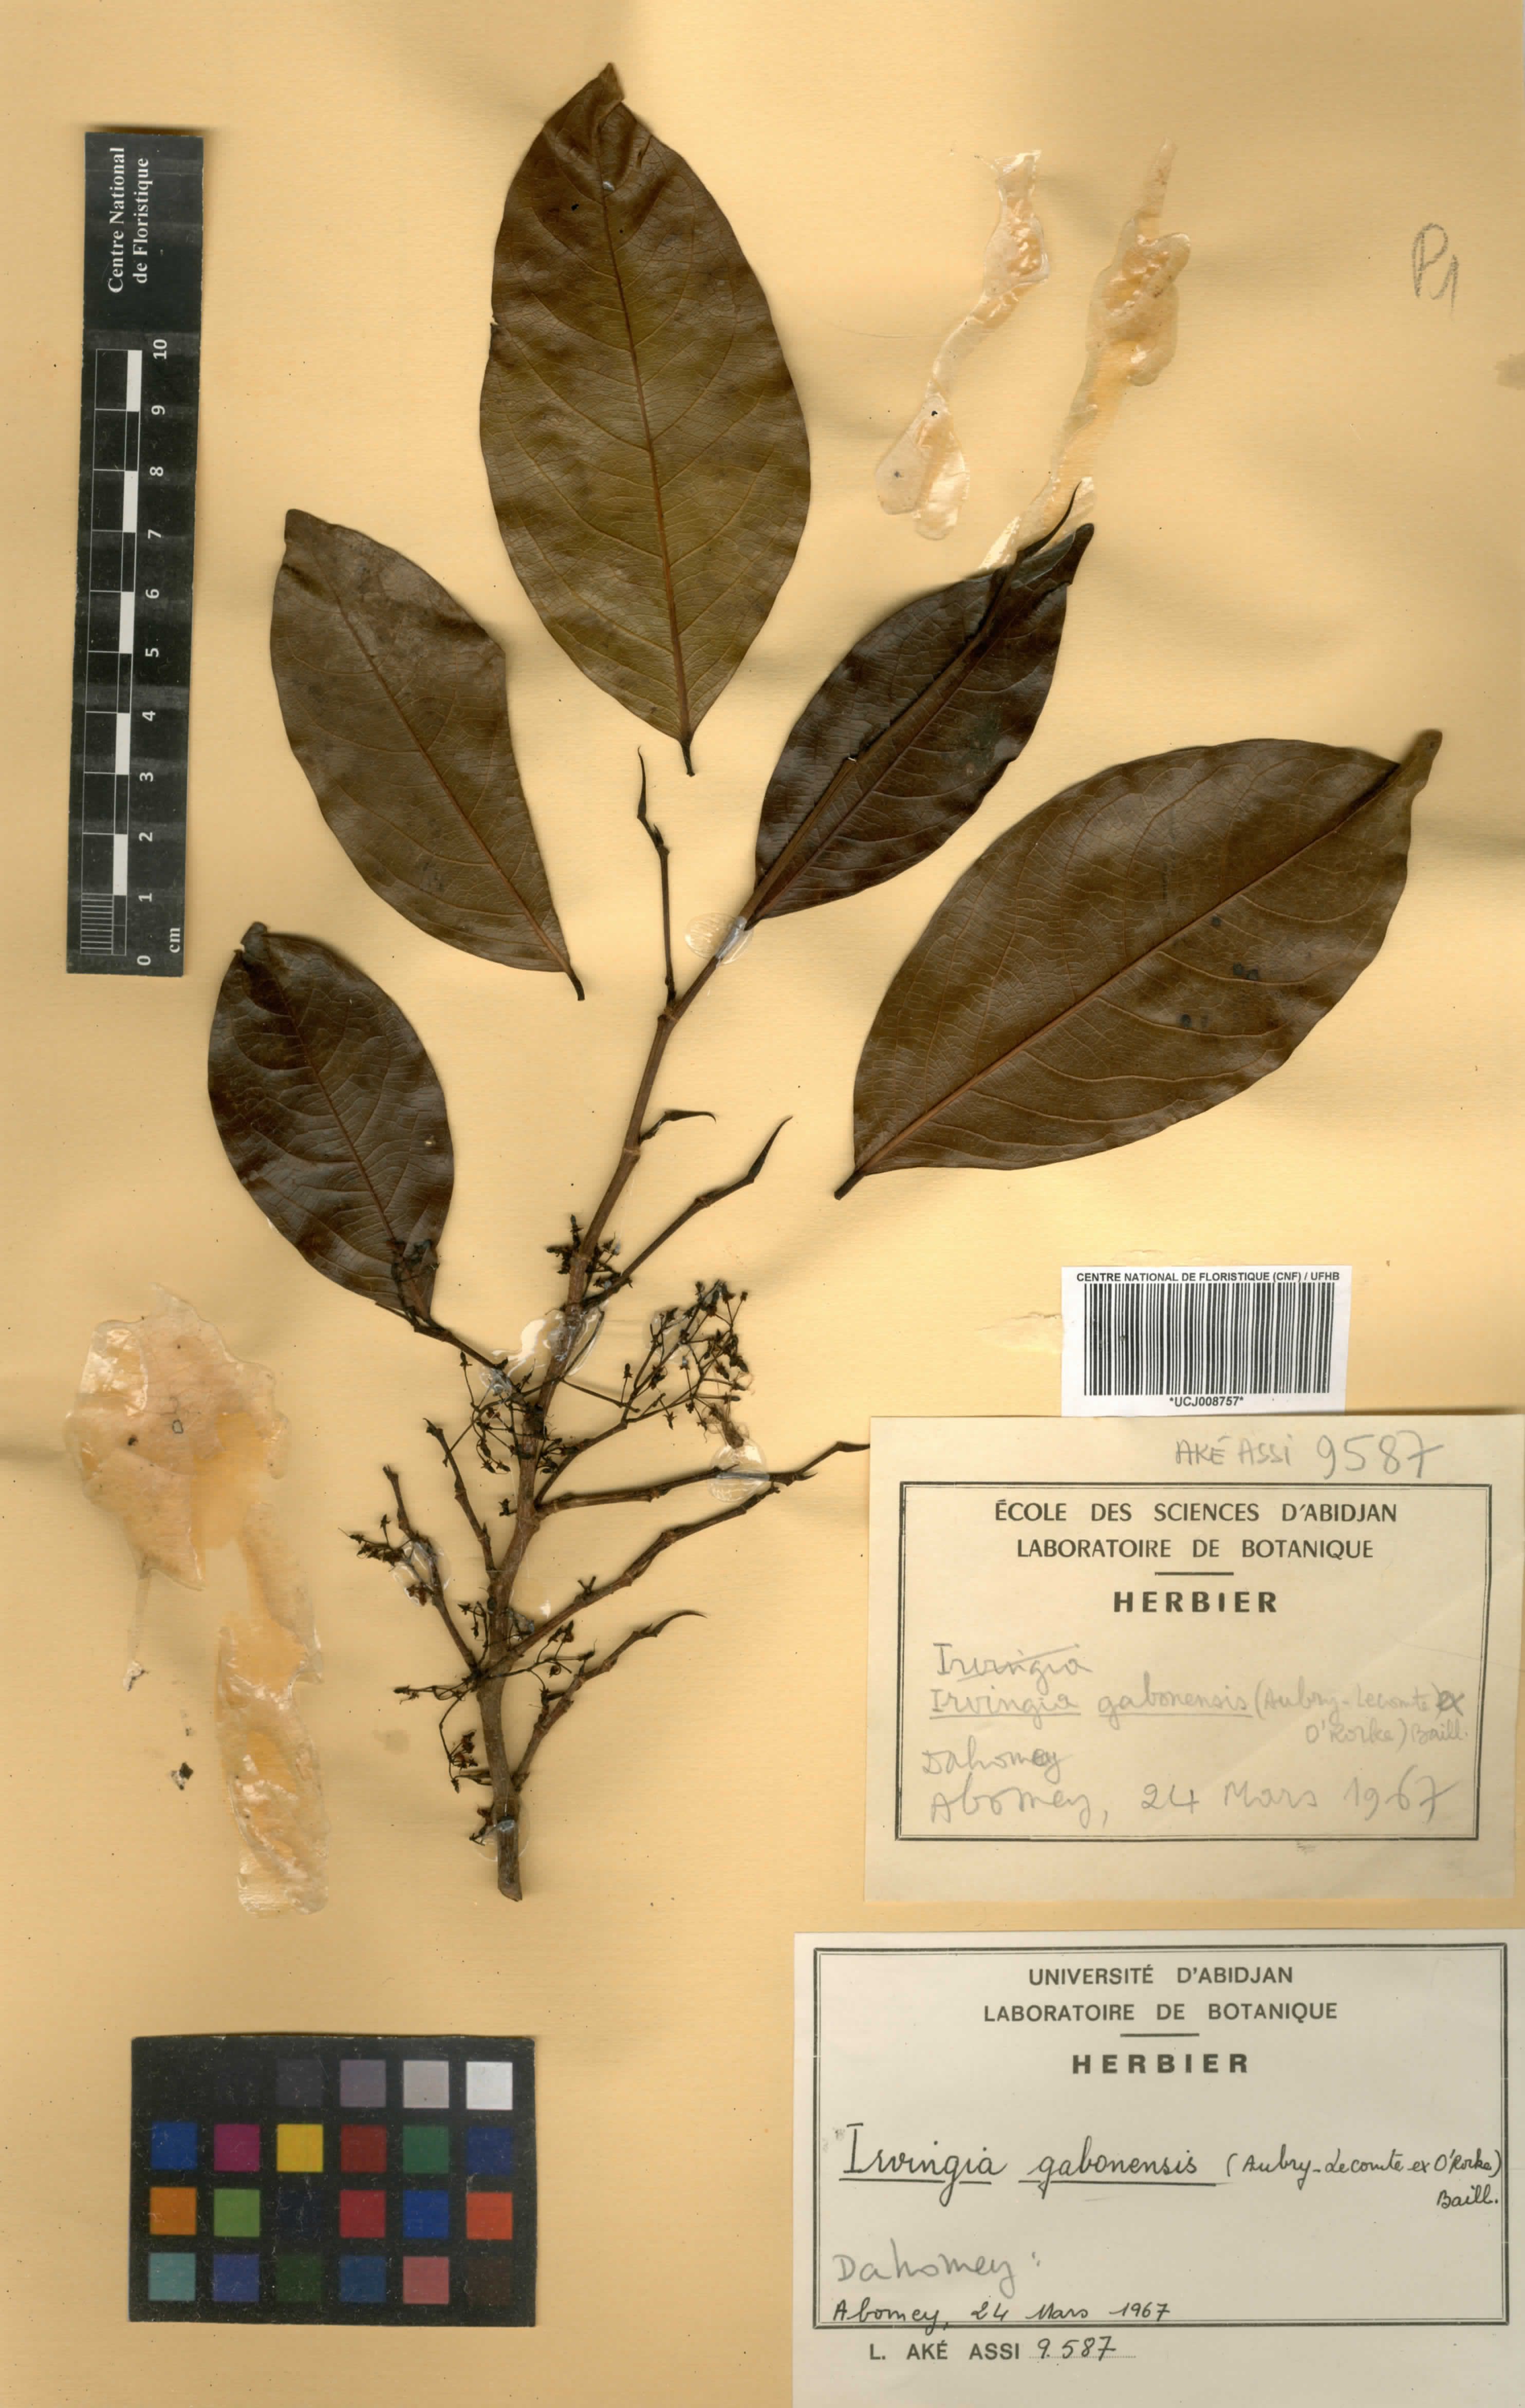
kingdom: Plantae
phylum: Tracheophyta
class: Magnoliopsida
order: Malpighiales
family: Irvingiaceae
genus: Irvingia
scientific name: Irvingia gabonensis
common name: Rainy season bush-mango
